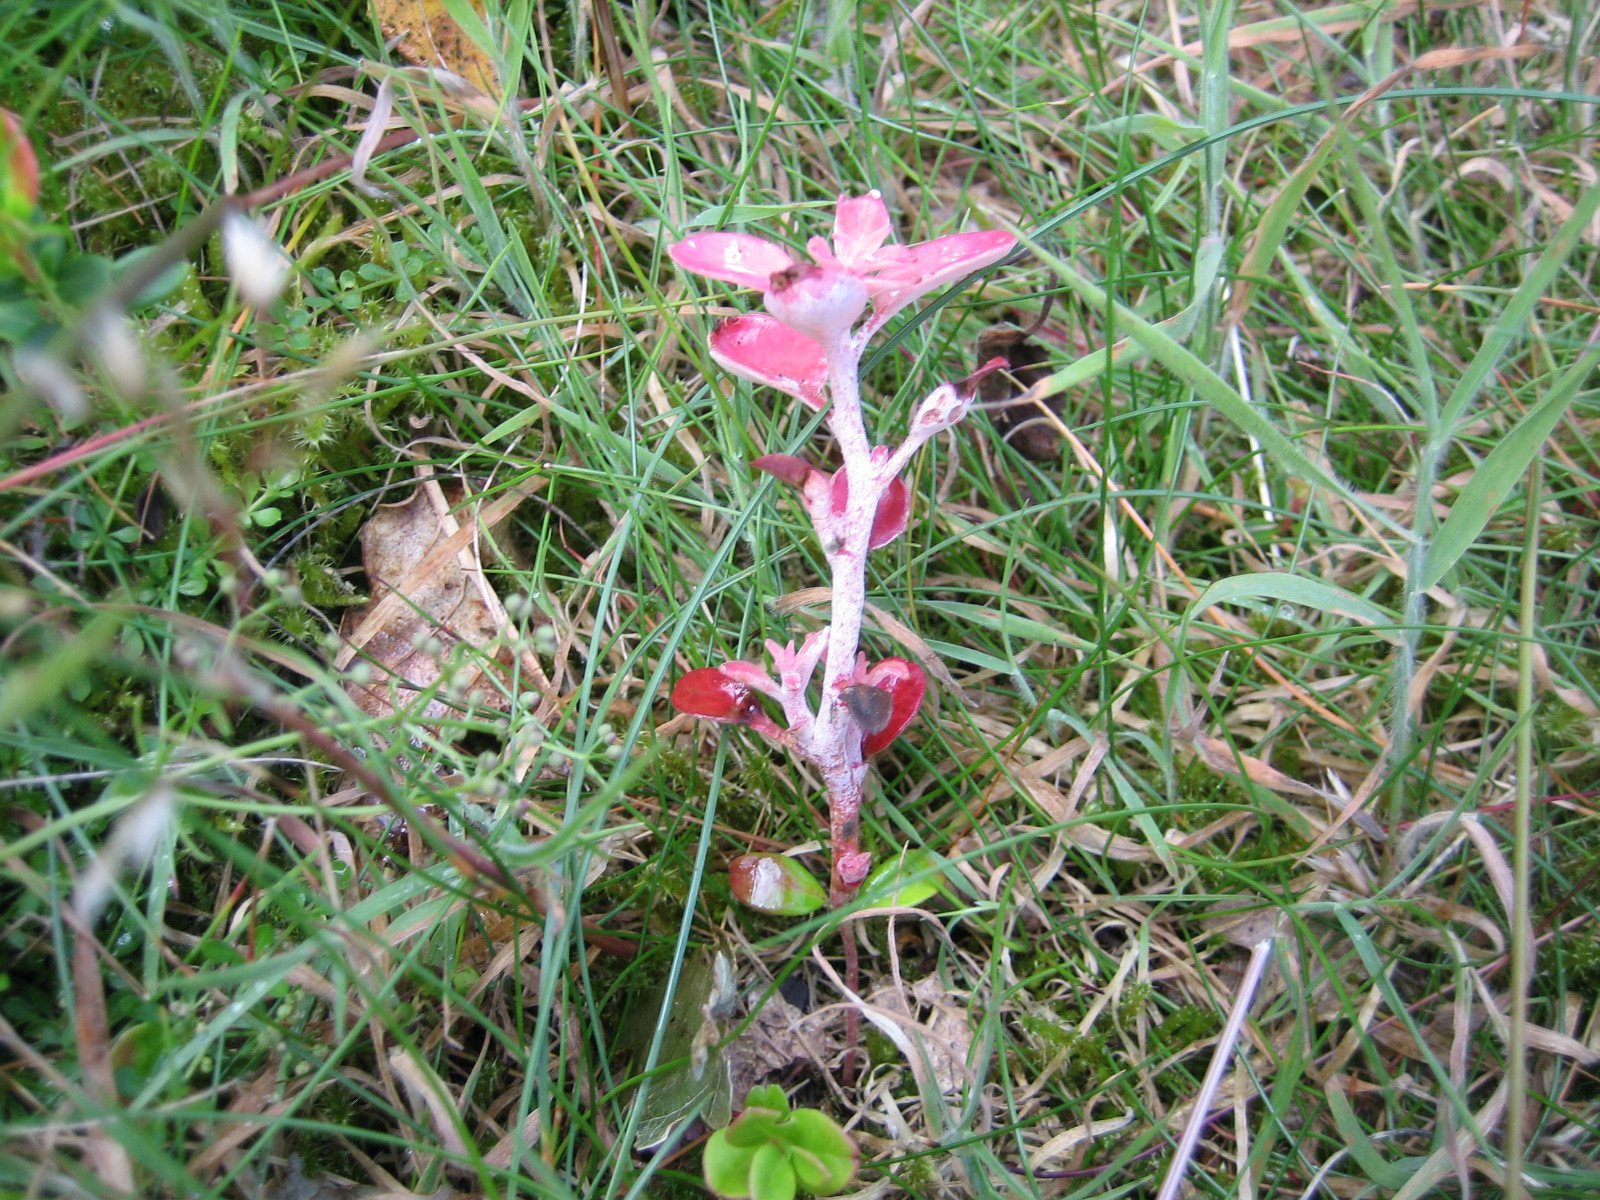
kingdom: Fungi
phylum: Basidiomycota
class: Exobasidiomycetes
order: Exobasidiales
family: Exobasidiaceae
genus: Exobasidium
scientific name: Exobasidium vaccinii
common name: tyttebærblad-bøllesvamp
